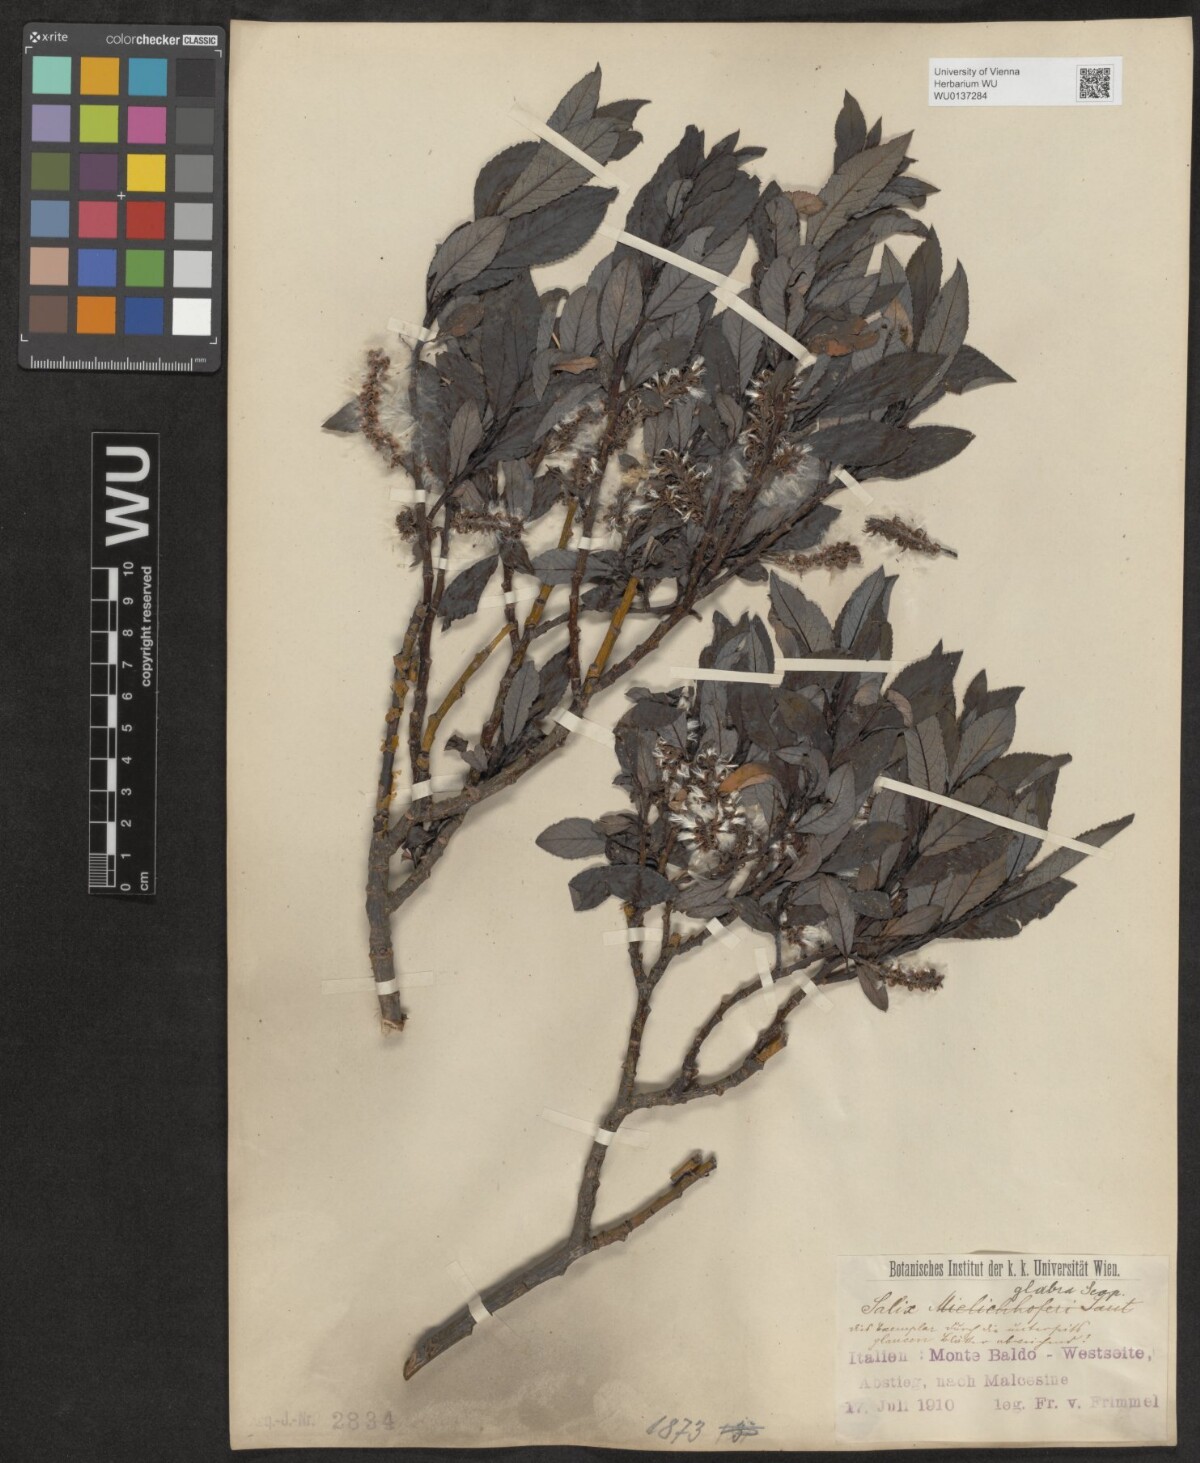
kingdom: Plantae
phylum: Tracheophyta
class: Magnoliopsida
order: Malpighiales
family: Salicaceae
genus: Salix
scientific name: Salix glabra
